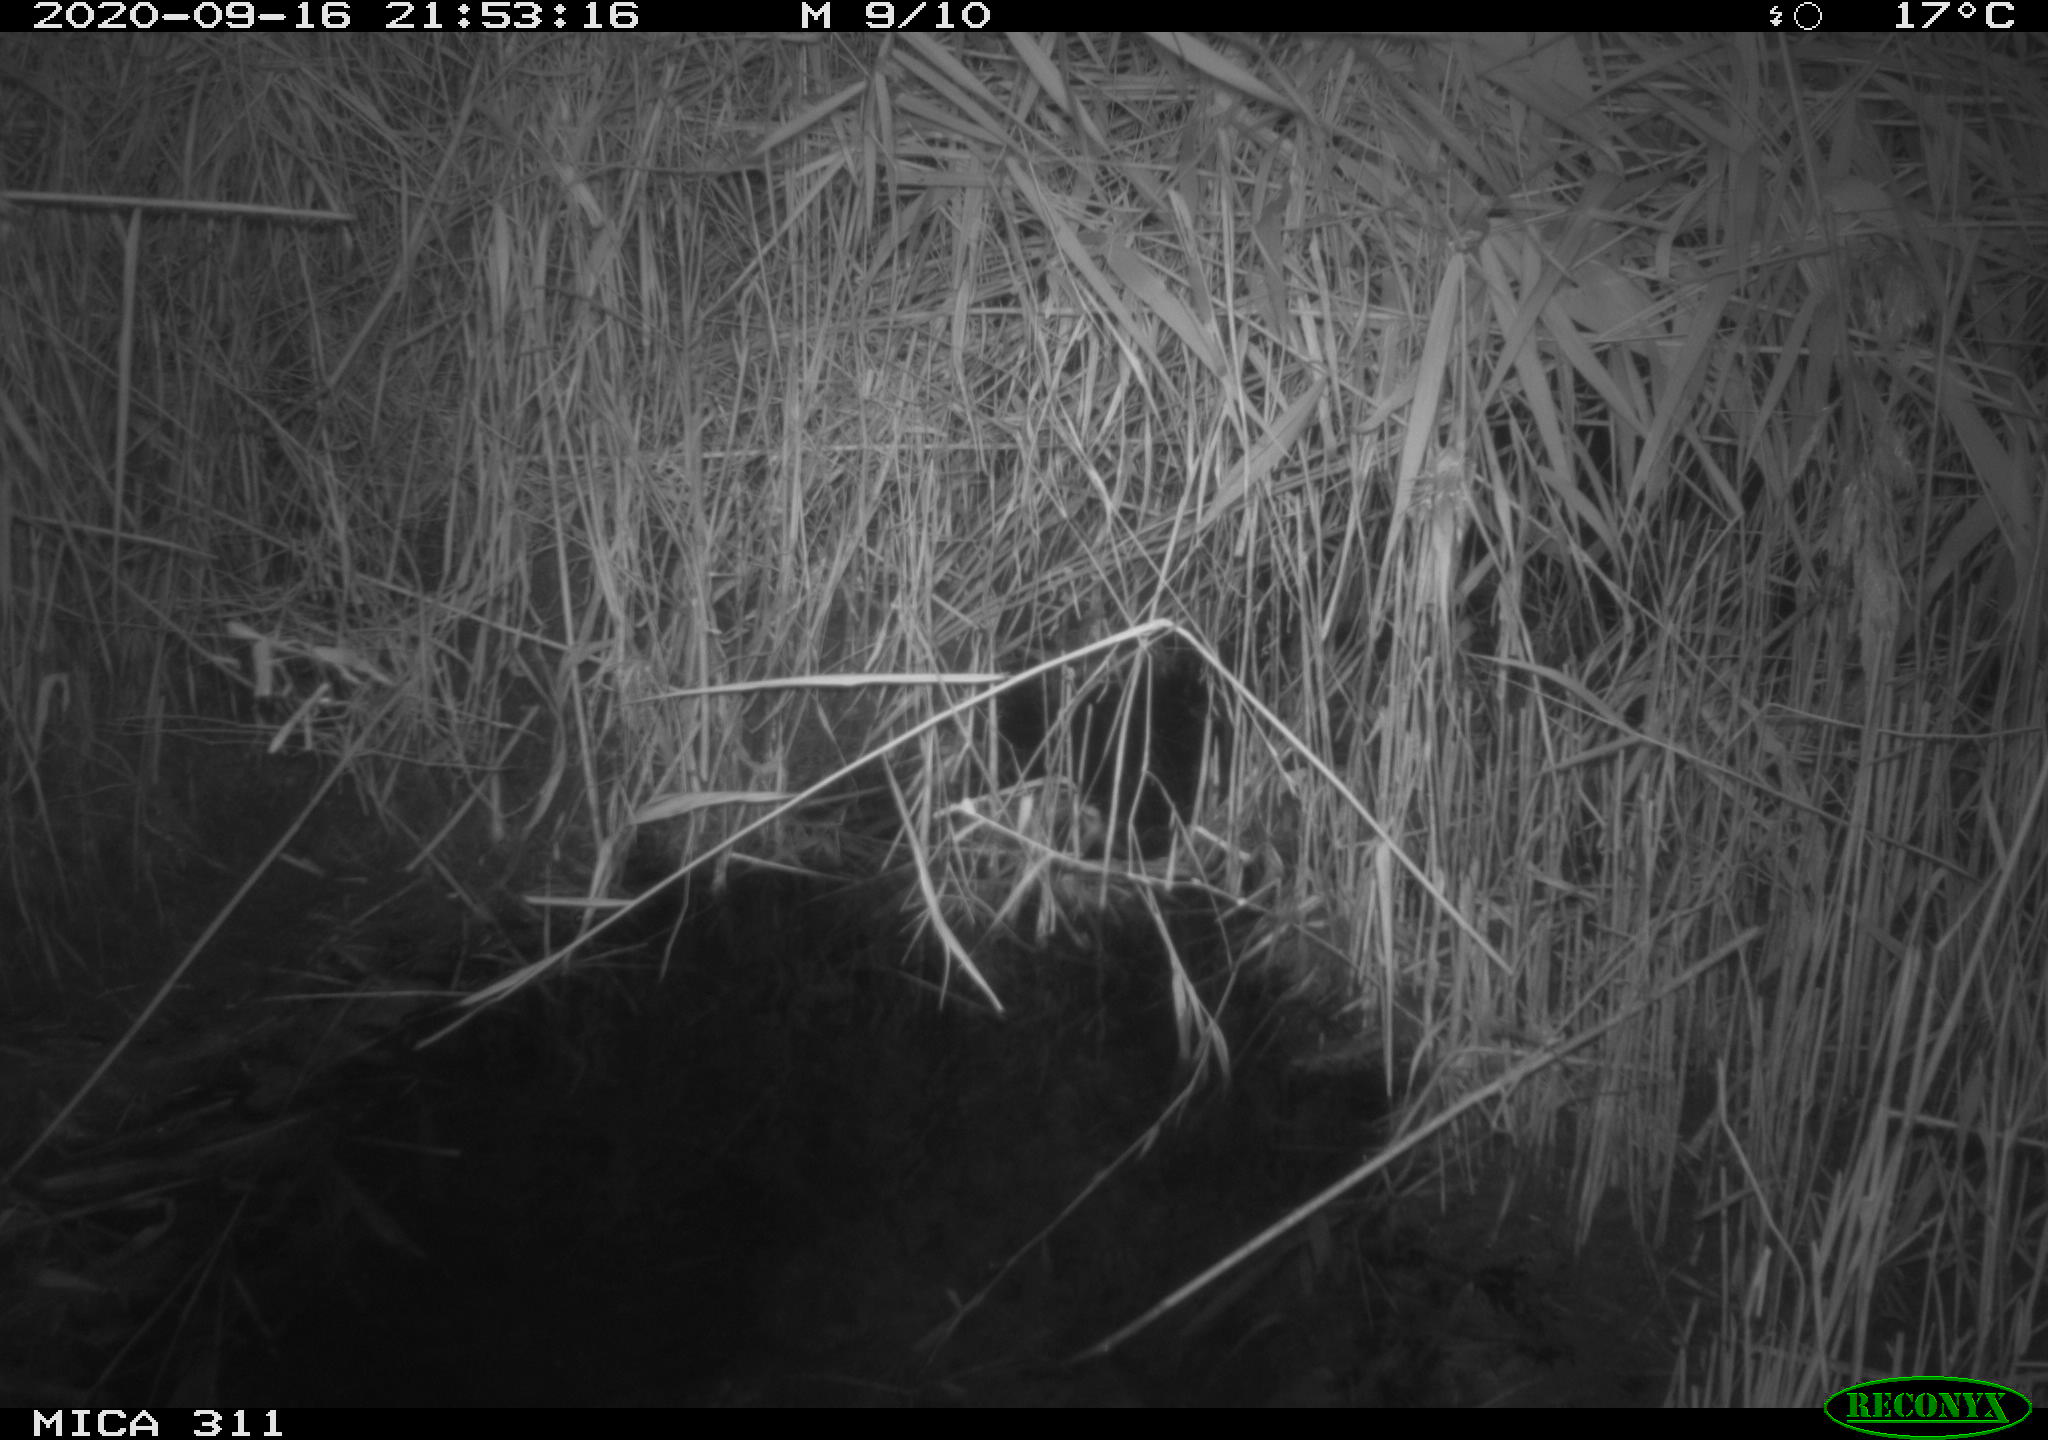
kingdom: Animalia
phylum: Chordata
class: Mammalia
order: Rodentia
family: Muridae
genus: Rattus
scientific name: Rattus norvegicus
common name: Brown rat
